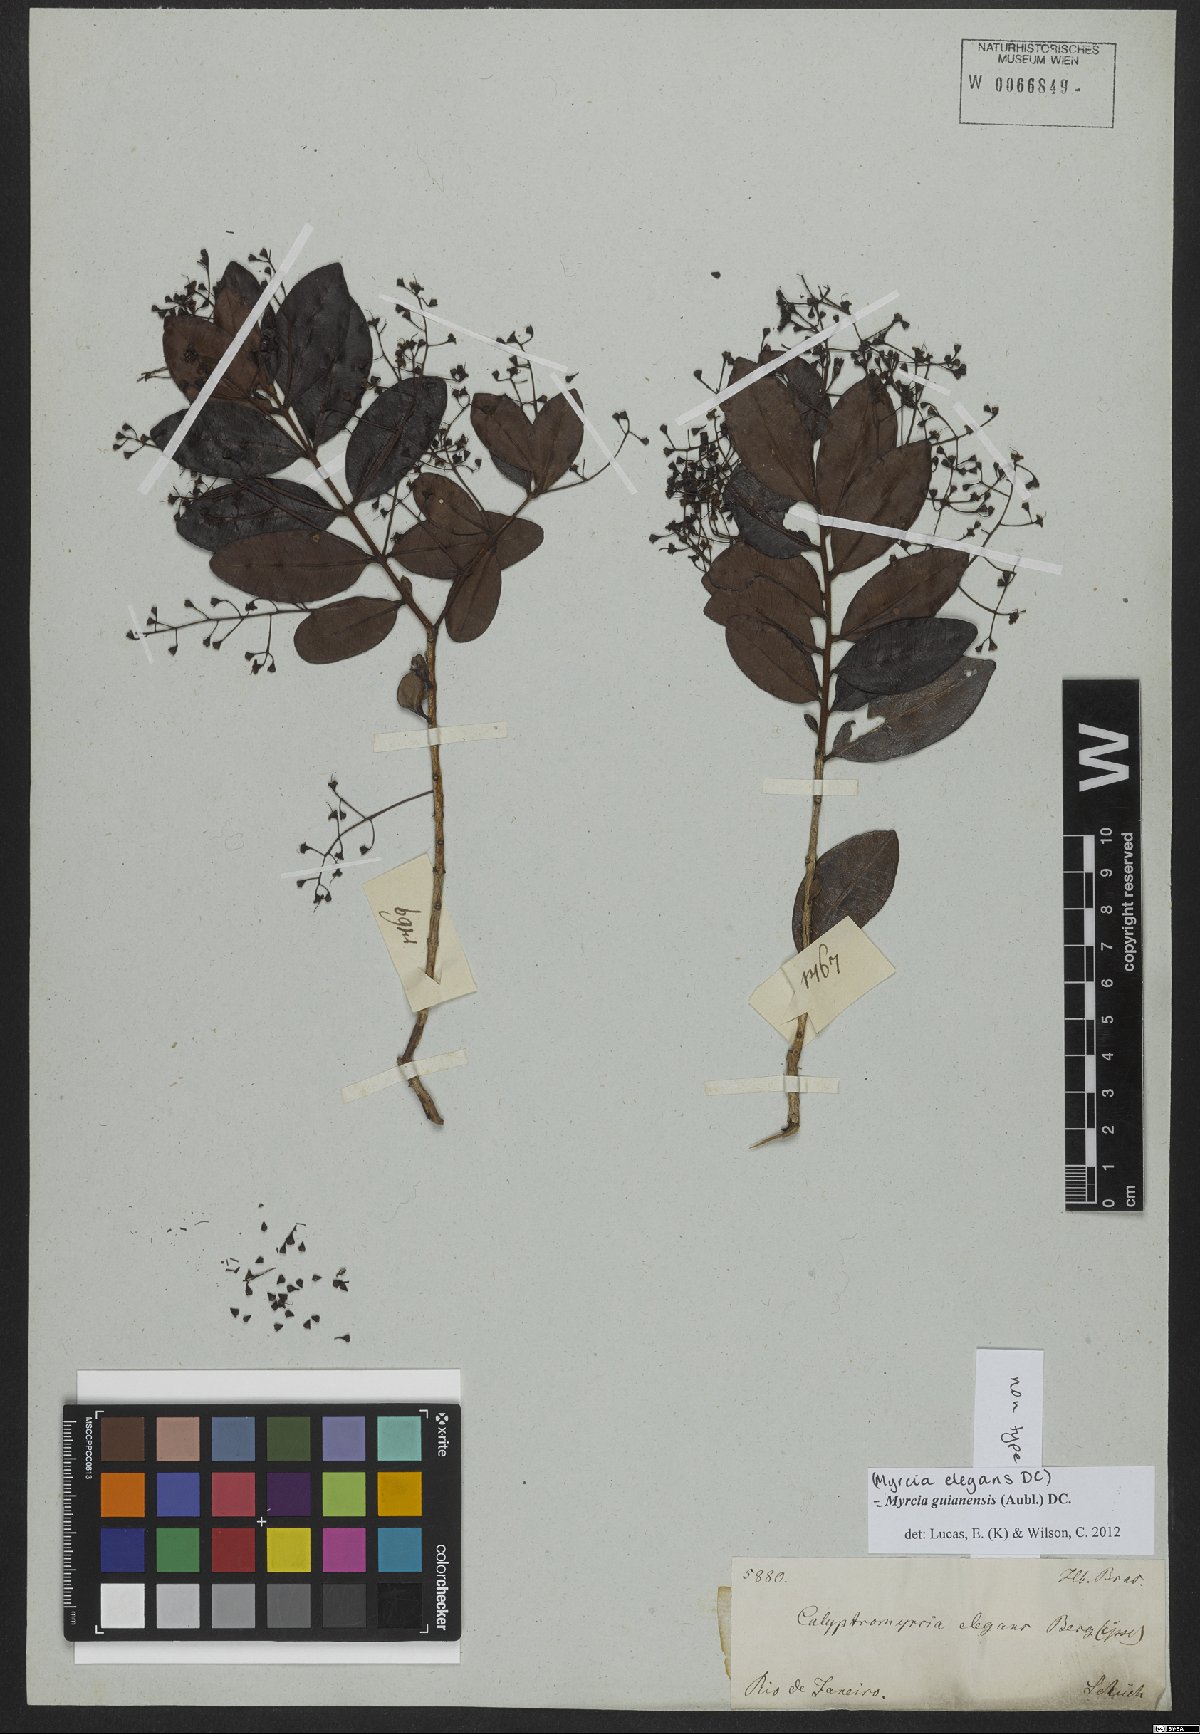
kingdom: Plantae
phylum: Tracheophyta
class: Magnoliopsida
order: Myrtales
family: Myrtaceae
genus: Myrcia
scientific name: Myrcia guianensis
